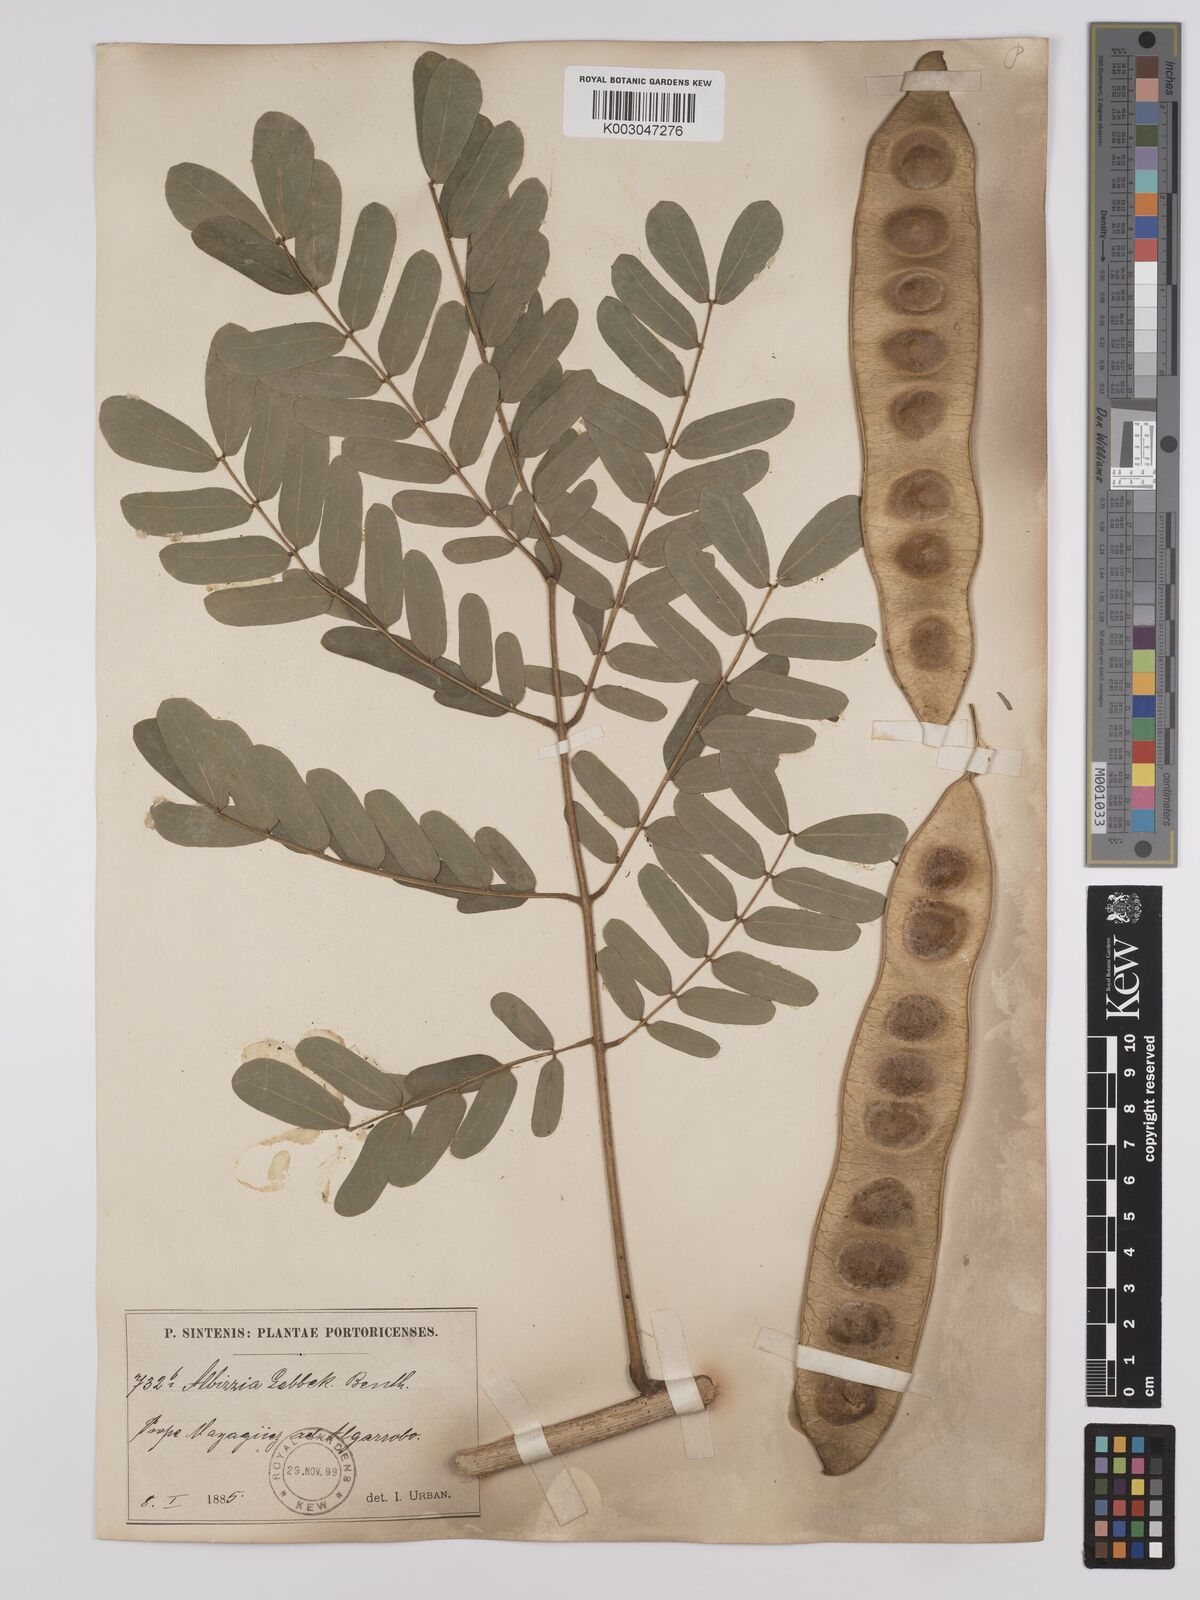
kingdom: Plantae
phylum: Tracheophyta
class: Magnoliopsida
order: Fabales
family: Fabaceae
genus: Albizia
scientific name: Albizia lebbeck
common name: Woman's tongue
